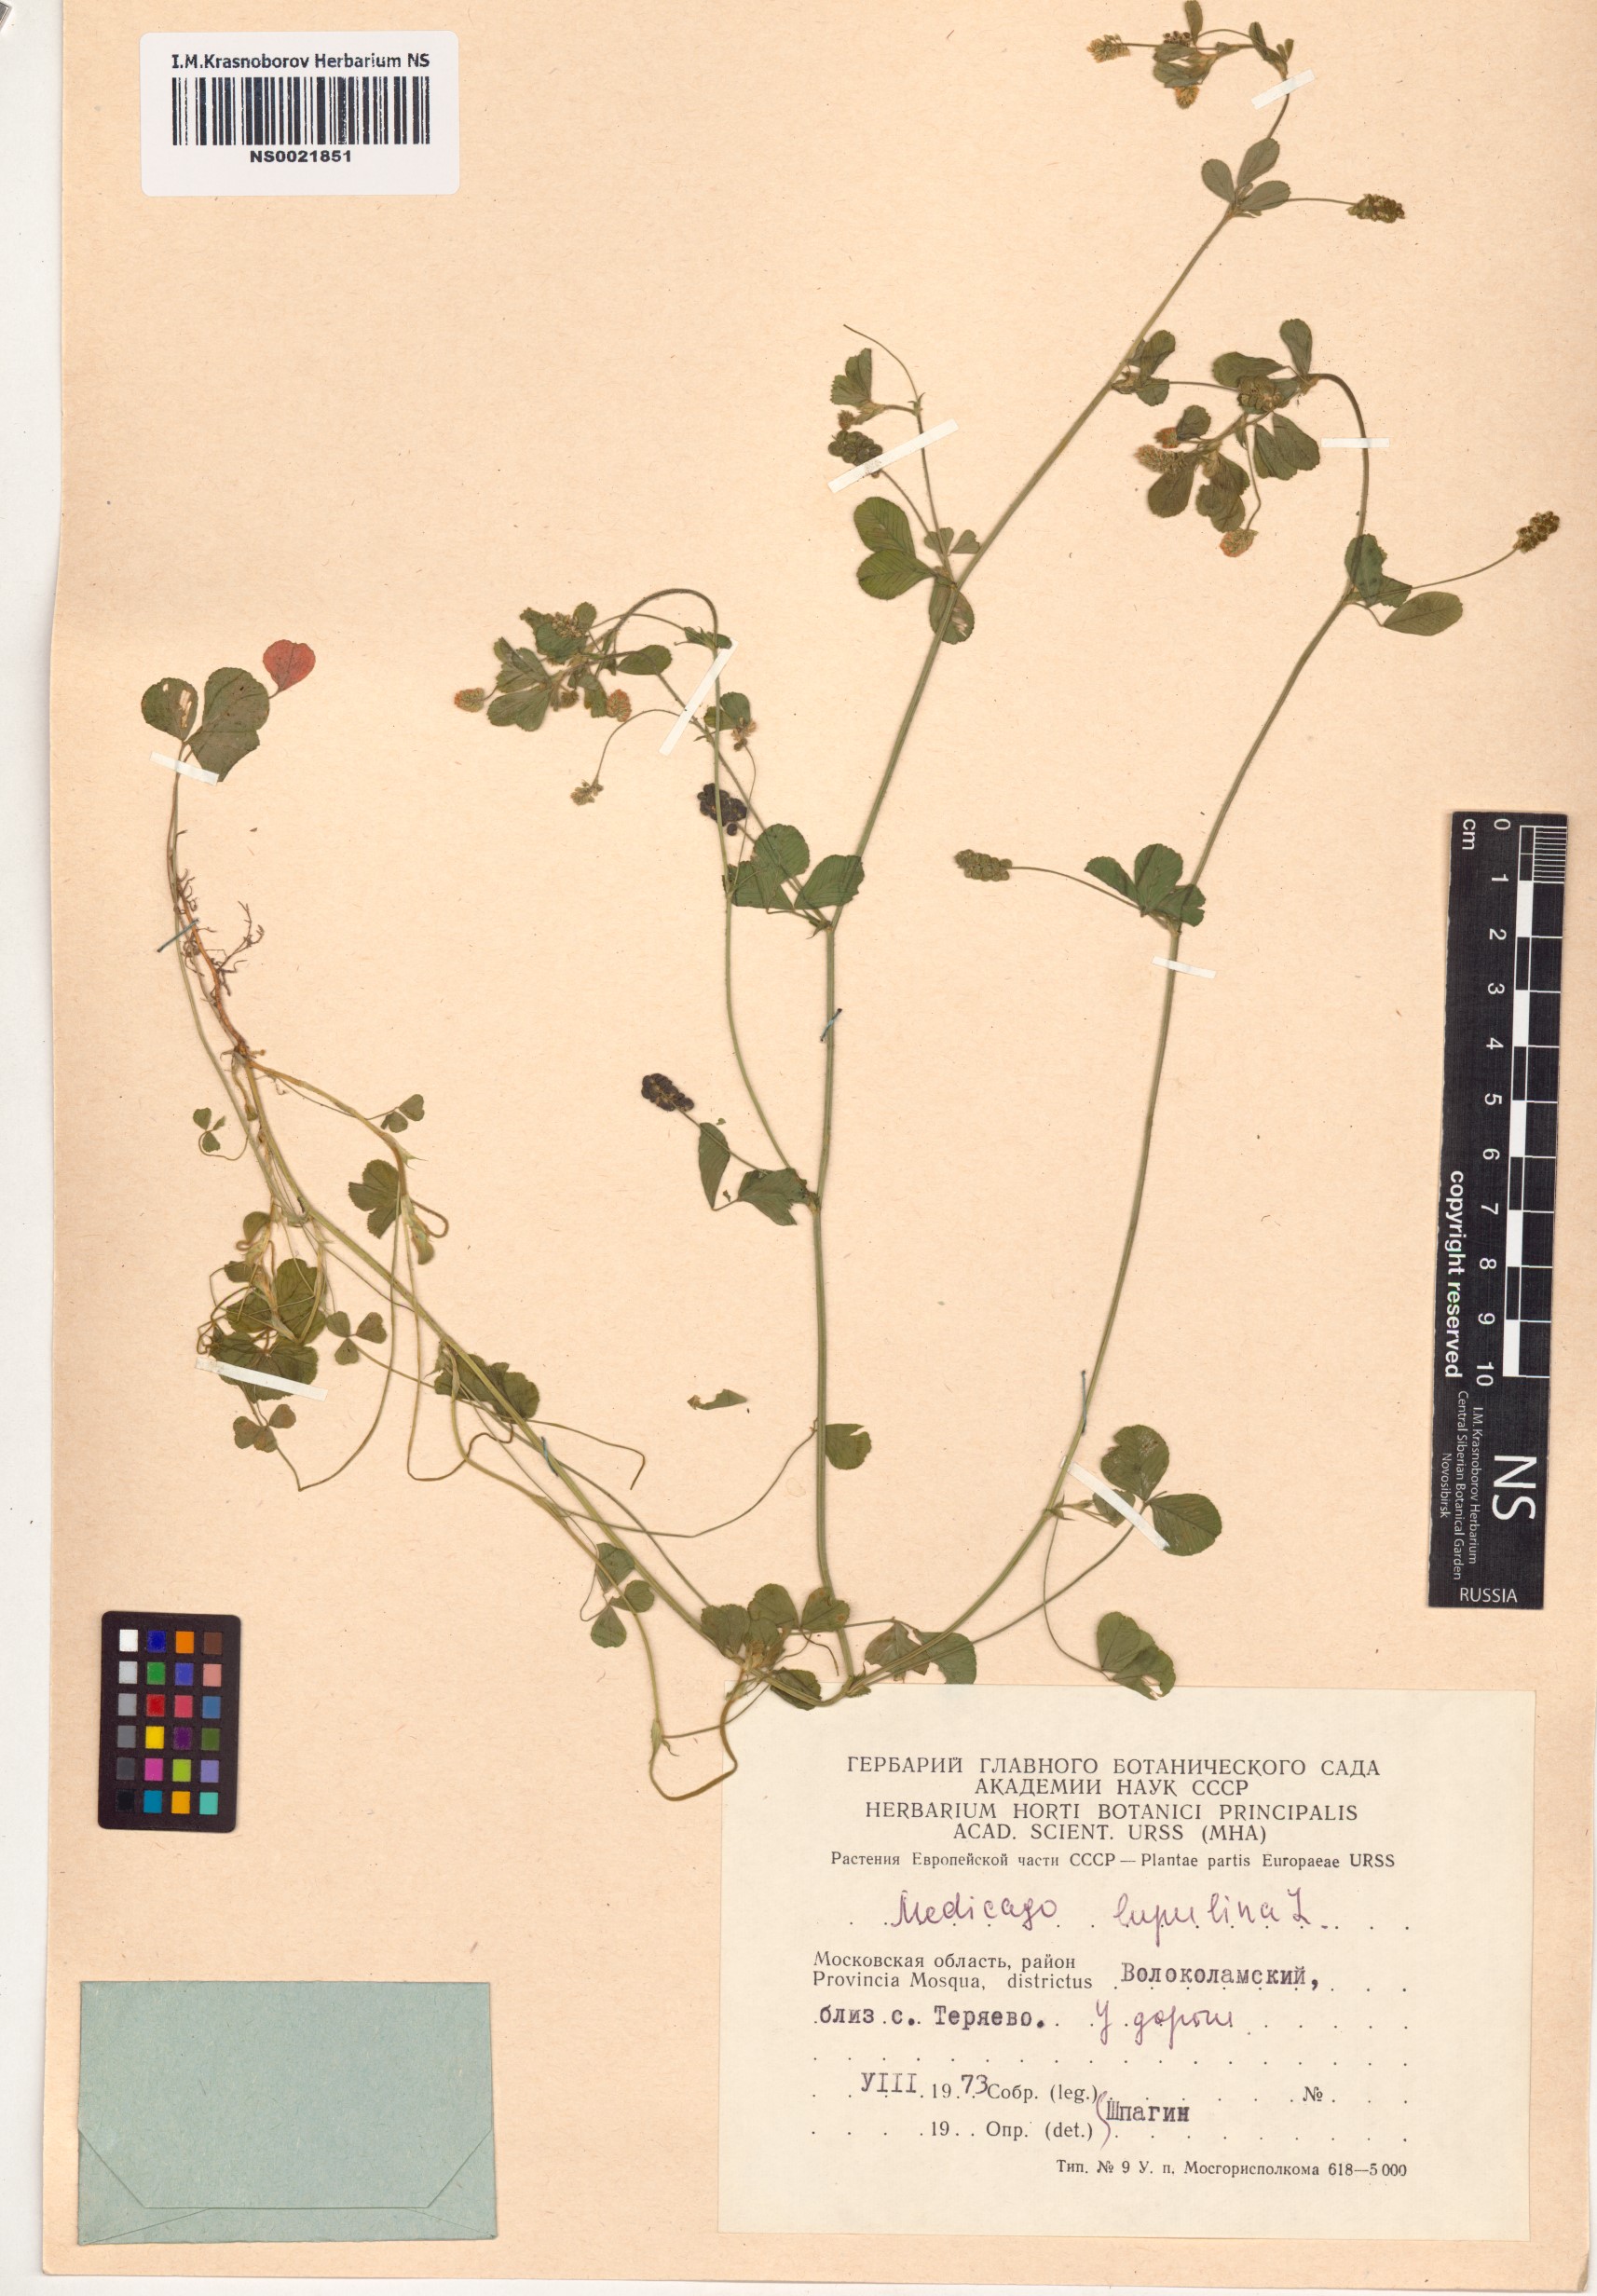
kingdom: Plantae
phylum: Tracheophyta
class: Magnoliopsida
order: Fabales
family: Fabaceae
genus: Medicago
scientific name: Medicago lupulina
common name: Black medick
